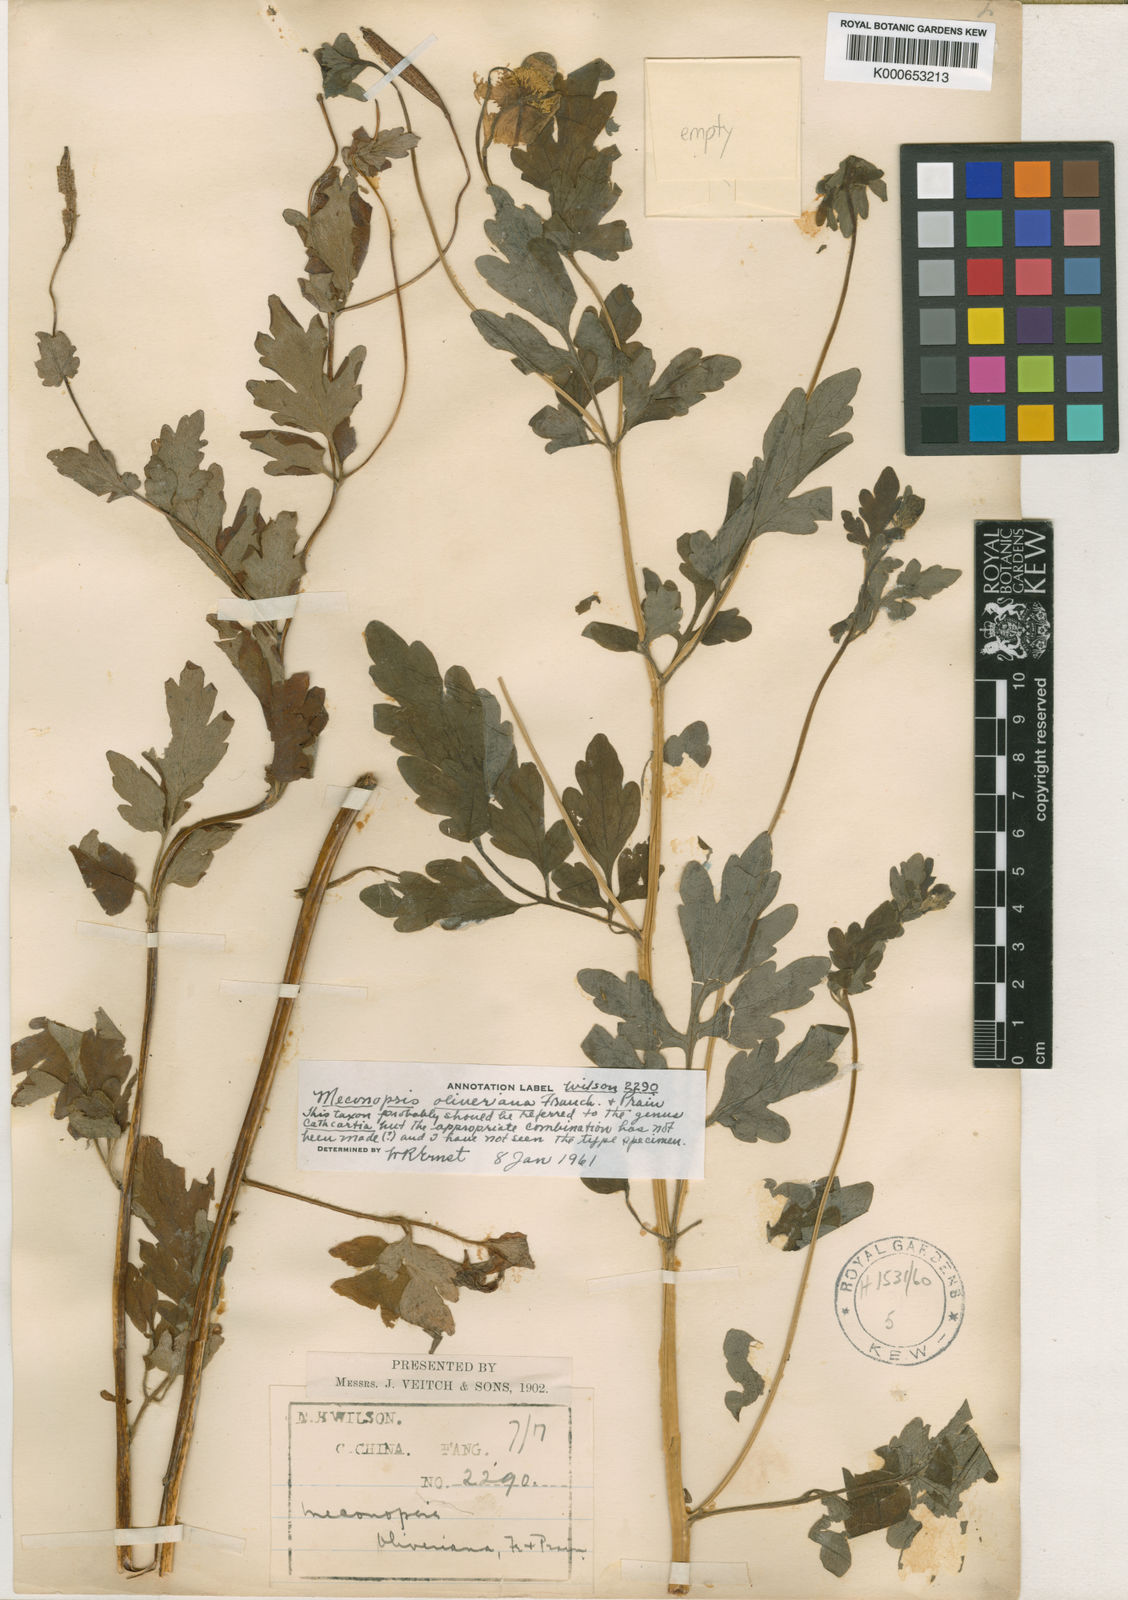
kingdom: Plantae
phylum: Tracheophyta
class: Magnoliopsida
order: Ranunculales
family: Papaveraceae
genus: Cathcartia
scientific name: Cathcartia oliveriana
